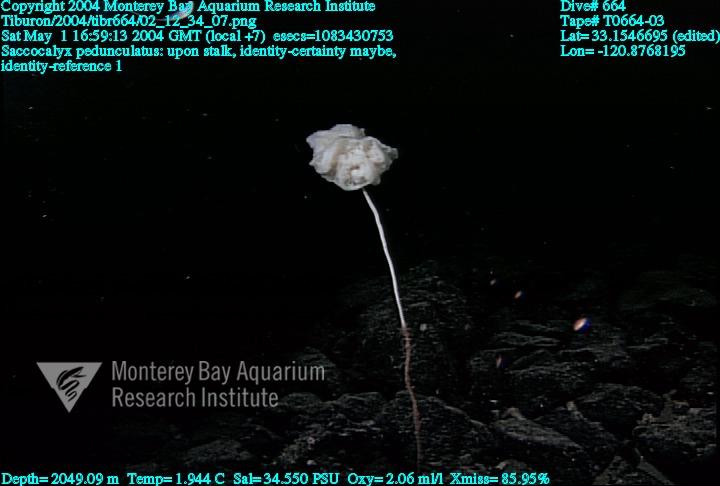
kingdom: Animalia
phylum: Porifera
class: Hexactinellida
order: Lyssacinosida
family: Euplectellidae
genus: Saccocalyx
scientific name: Saccocalyx pedunculatus
